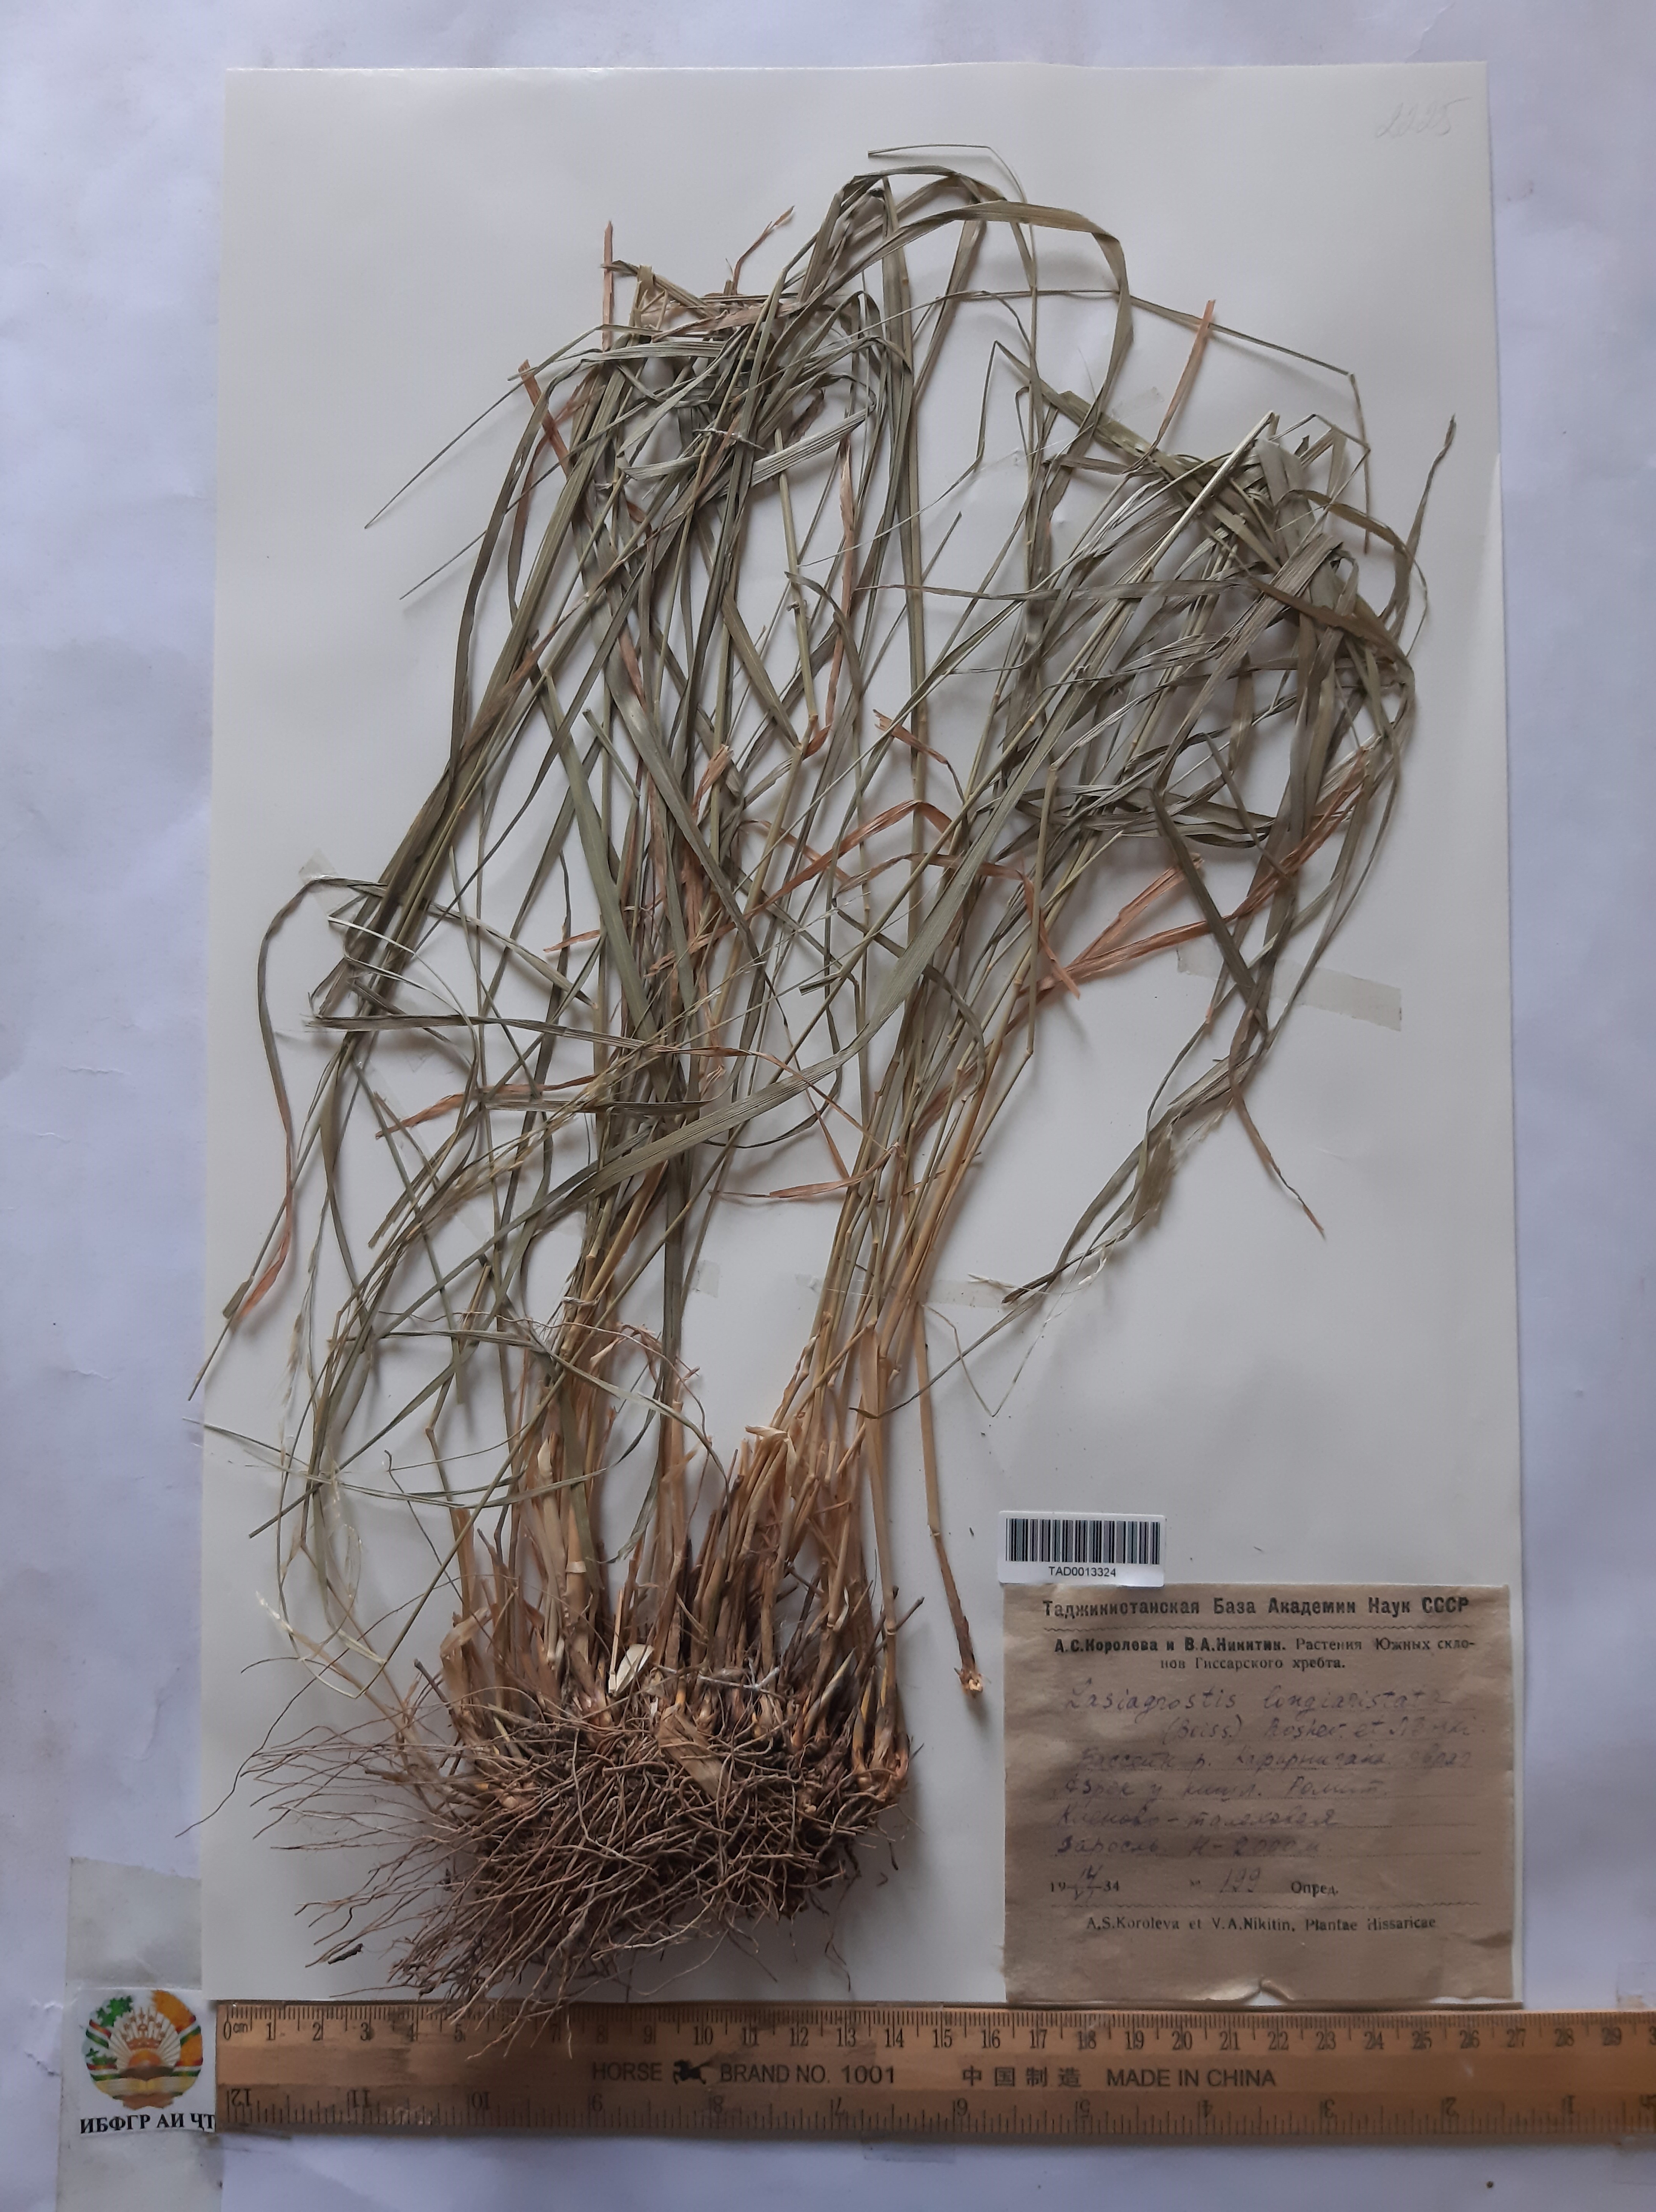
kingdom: Plantae
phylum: Tracheophyta
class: Liliopsida
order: Poales
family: Poaceae
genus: Achnatherum
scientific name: Achnatherum turcomanicum
